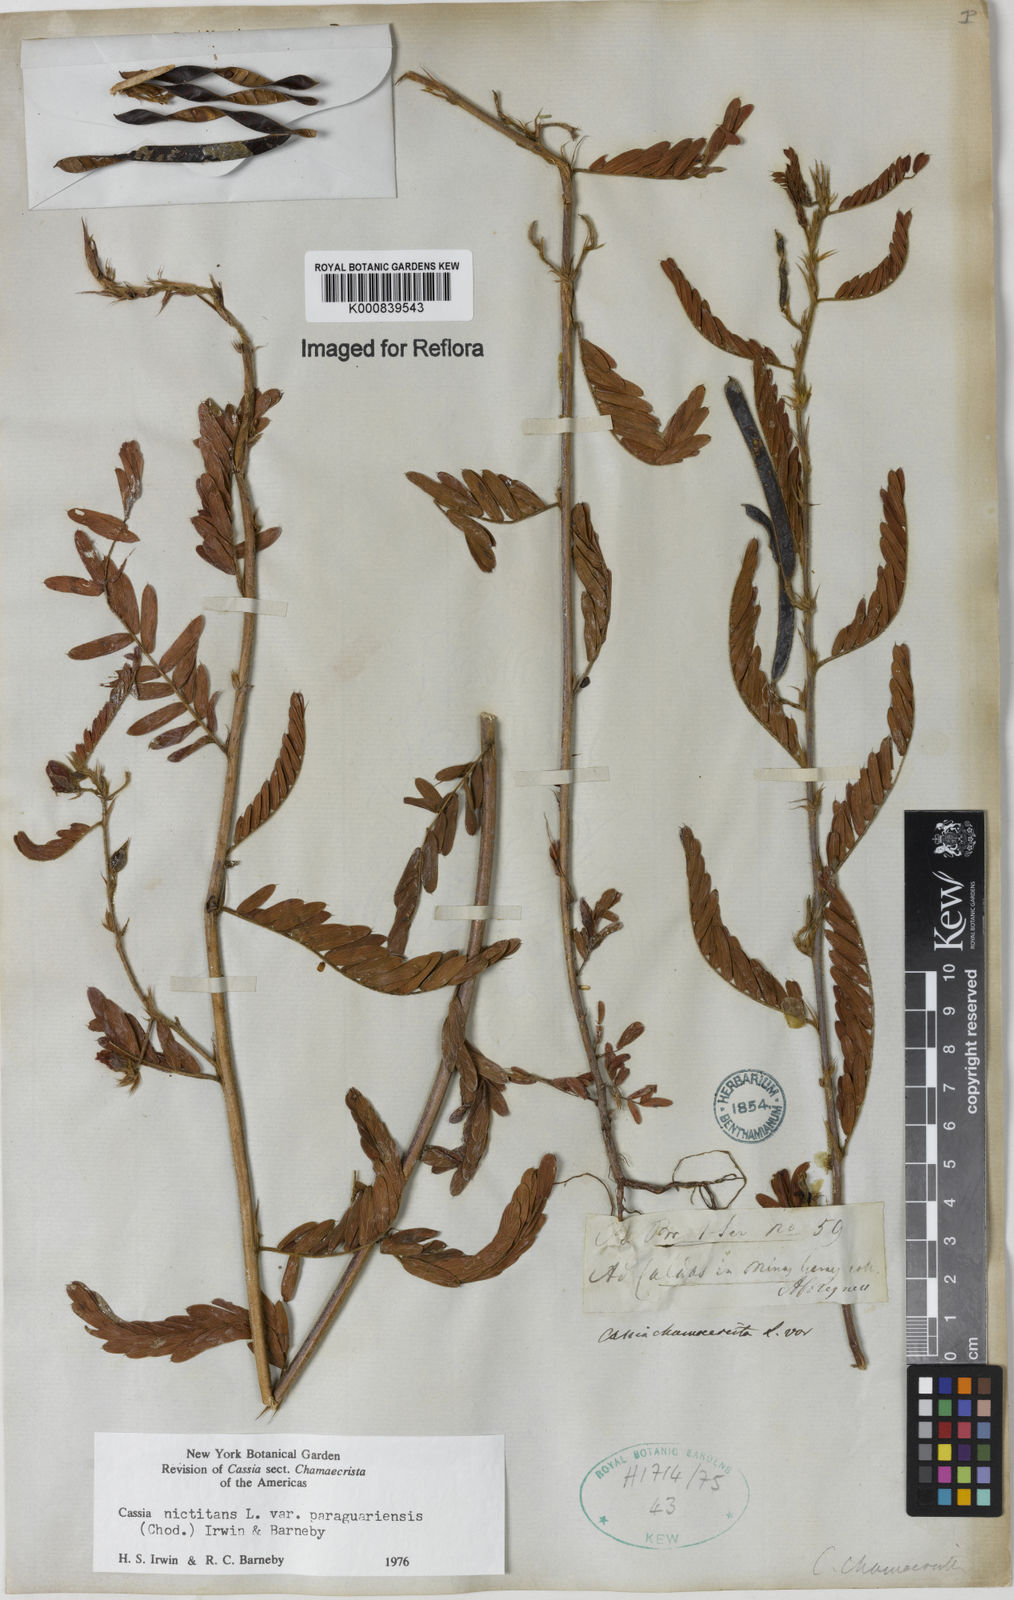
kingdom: Plantae
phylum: Tracheophyta
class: Magnoliopsida
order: Fabales
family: Fabaceae
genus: Chamaecrista
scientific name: Chamaecrista nictitans
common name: Sensitive cassia
